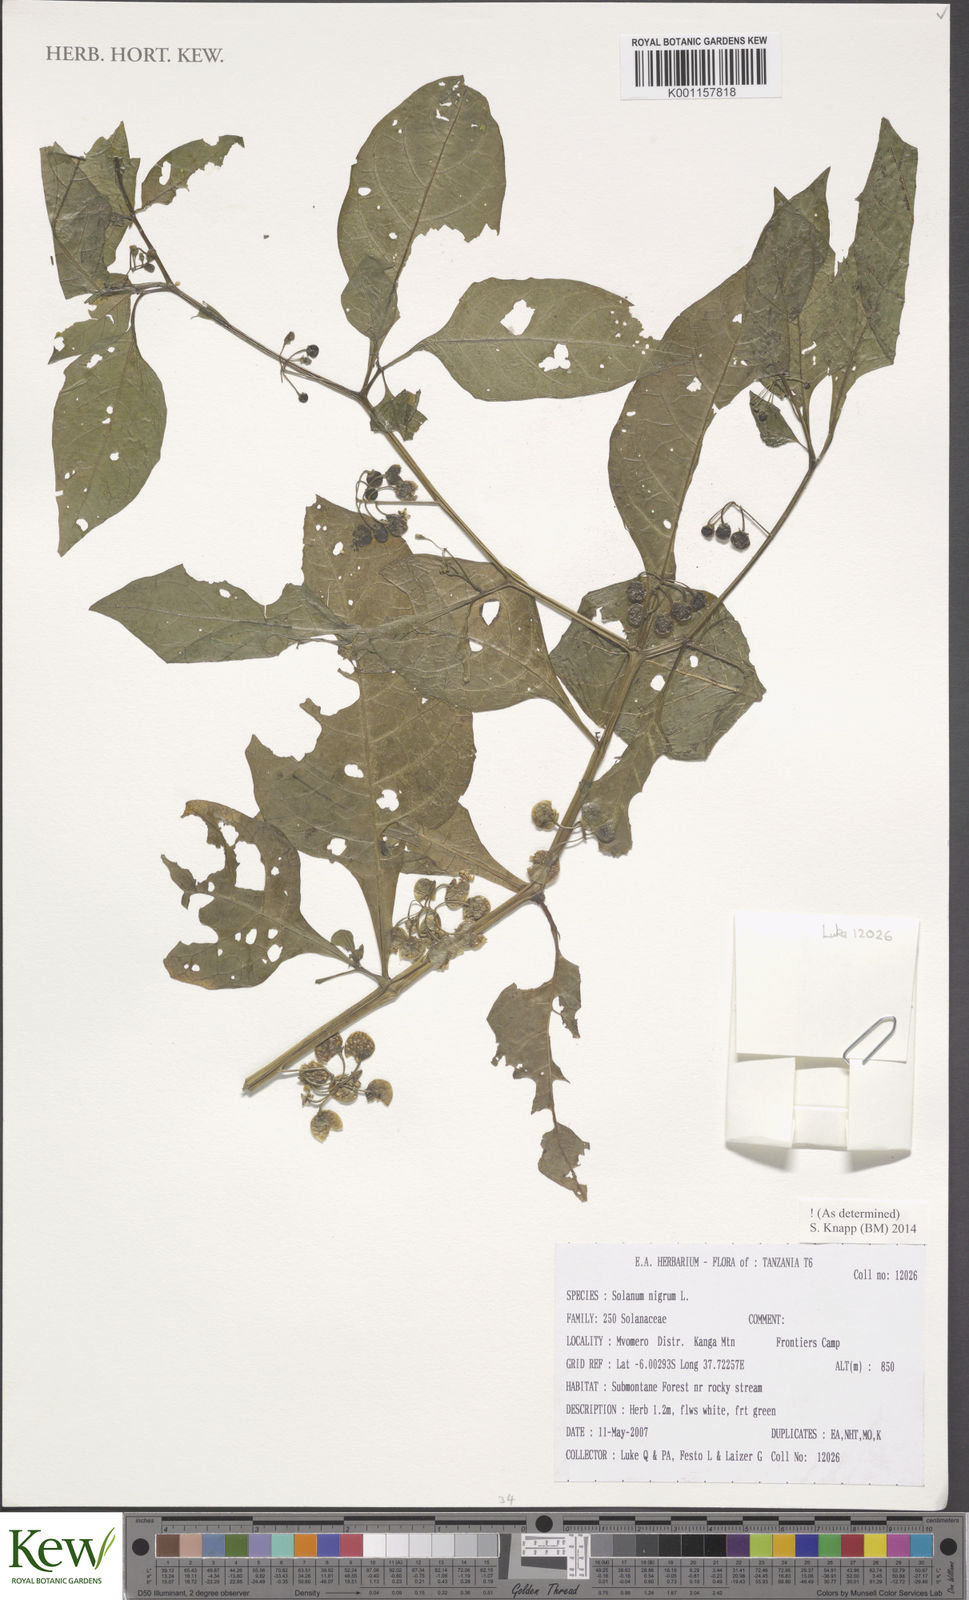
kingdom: Plantae
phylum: Tracheophyta
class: Magnoliopsida
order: Solanales
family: Solanaceae
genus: Solanum
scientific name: Solanum nigrum
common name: Black nightshade
